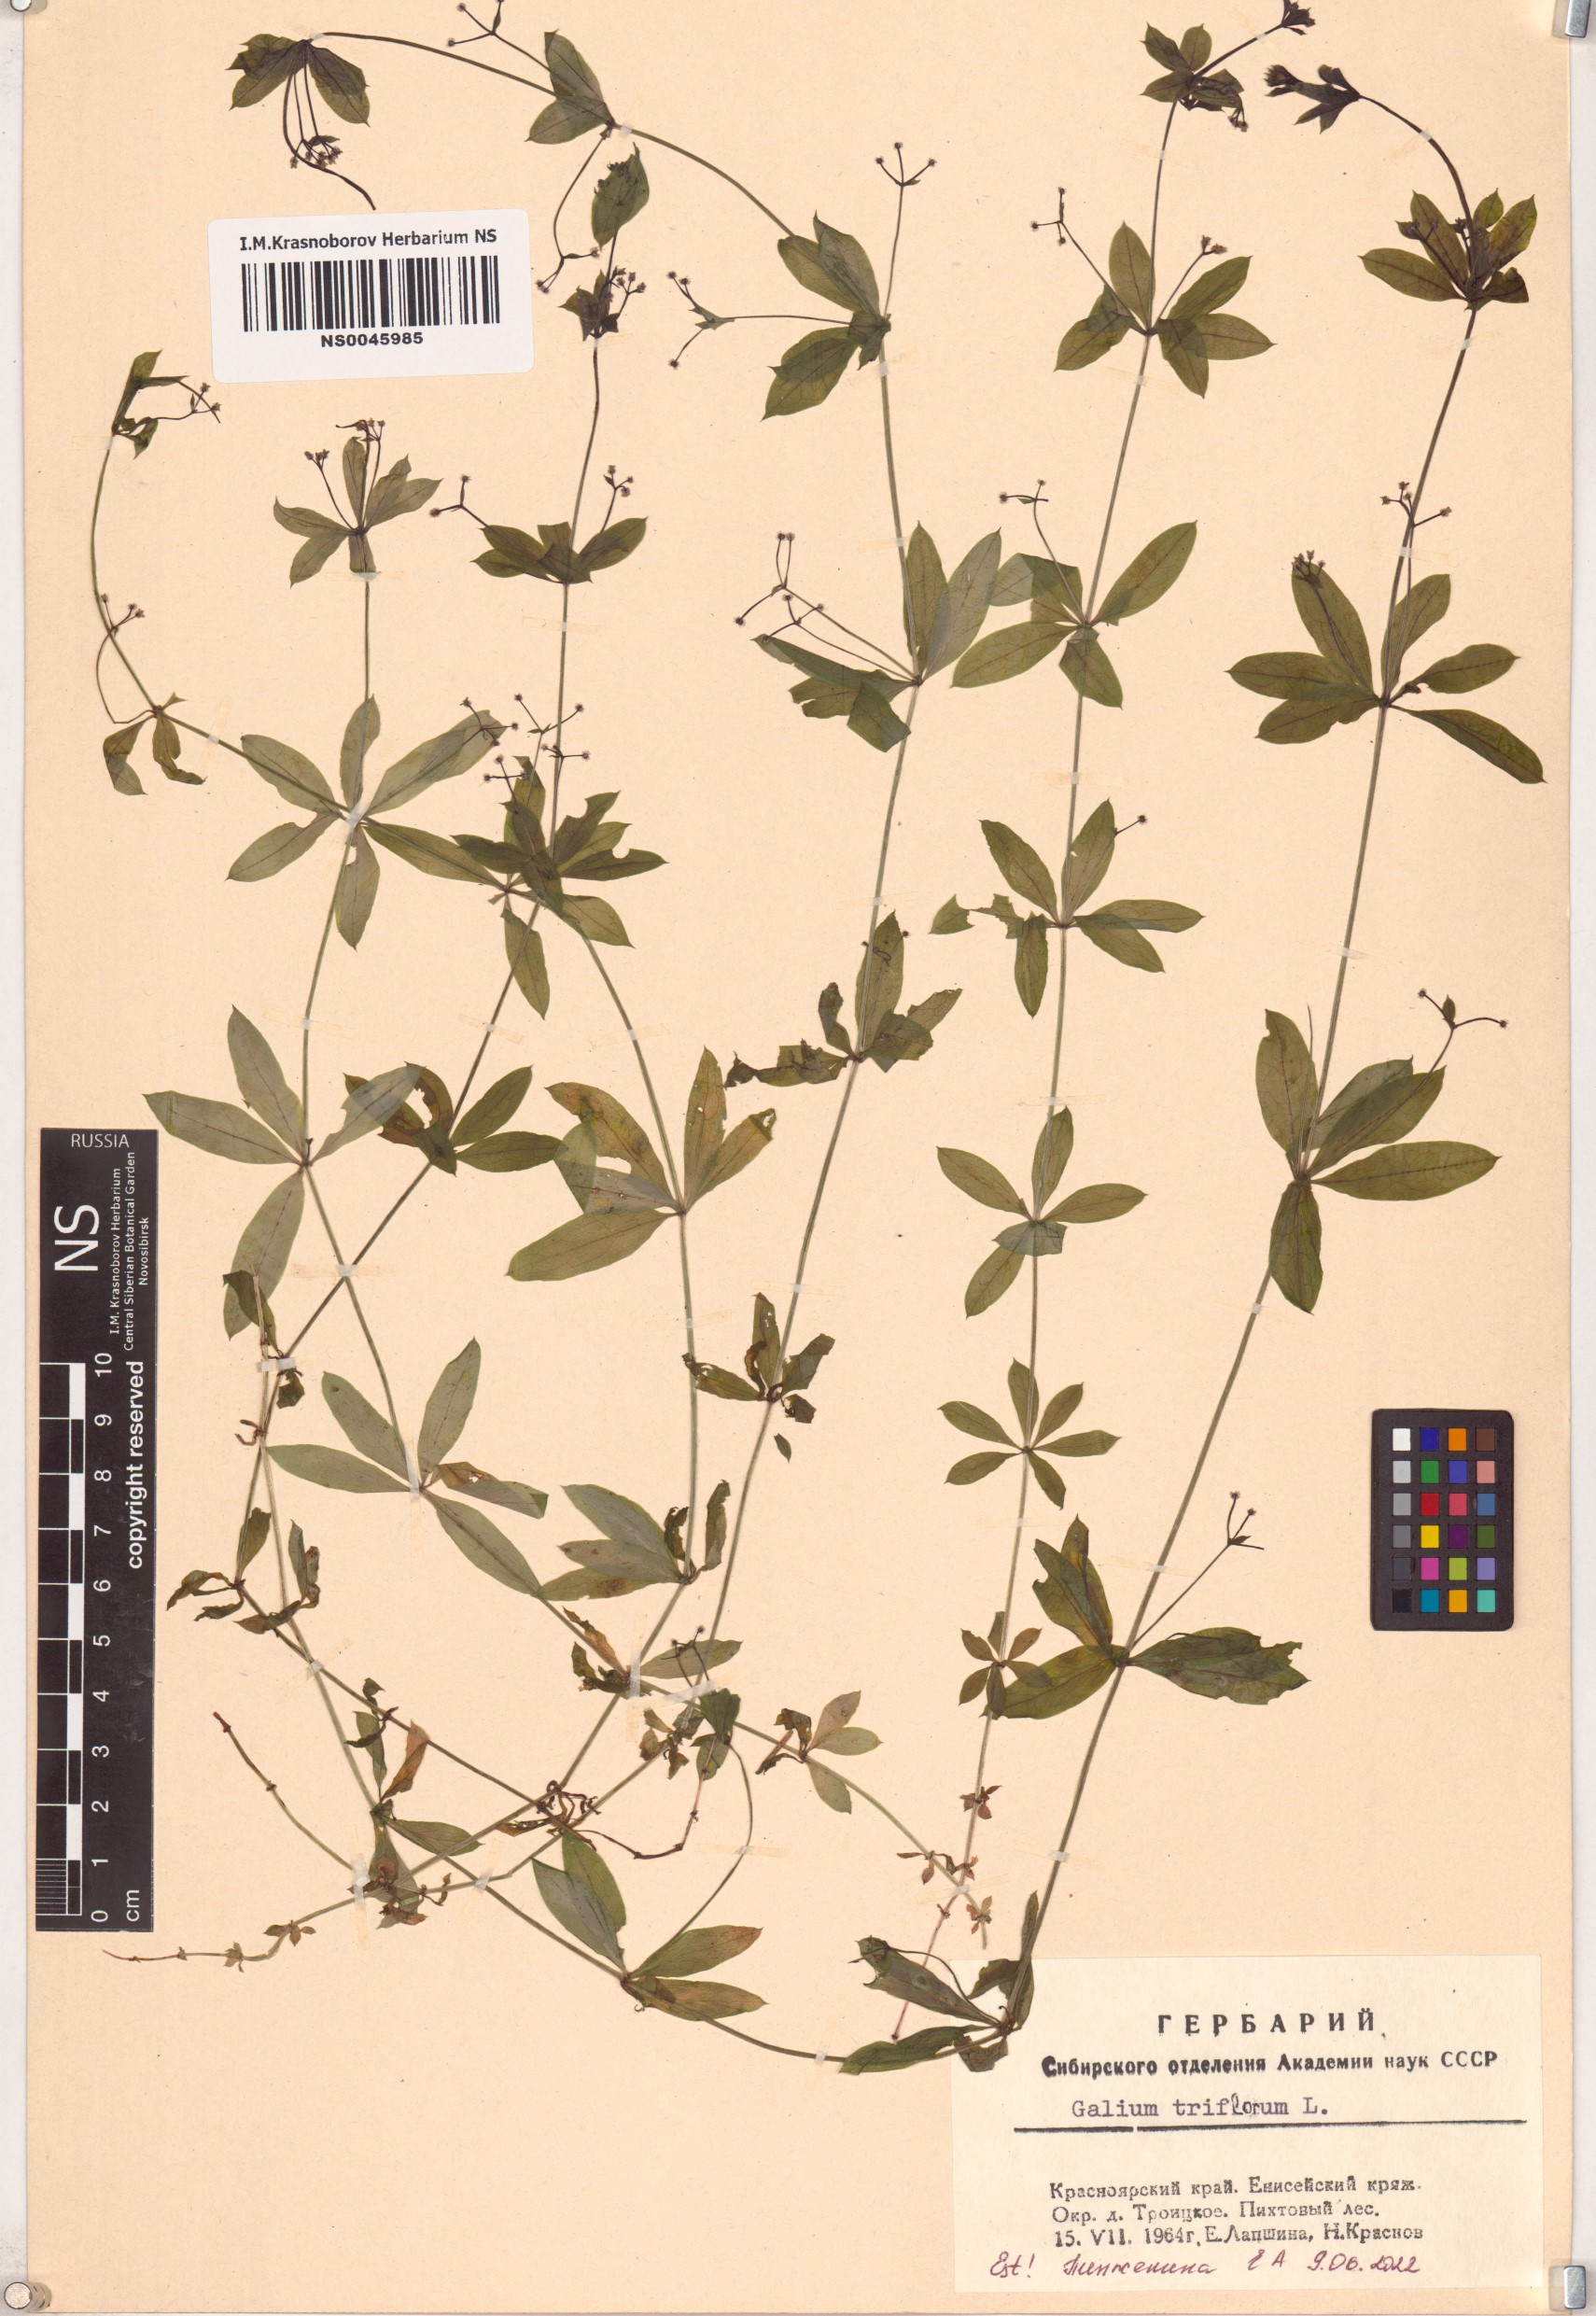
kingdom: Plantae
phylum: Tracheophyta
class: Magnoliopsida
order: Gentianales
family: Rubiaceae
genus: Galium
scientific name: Galium triflorum
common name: Fragrant bedstraw
